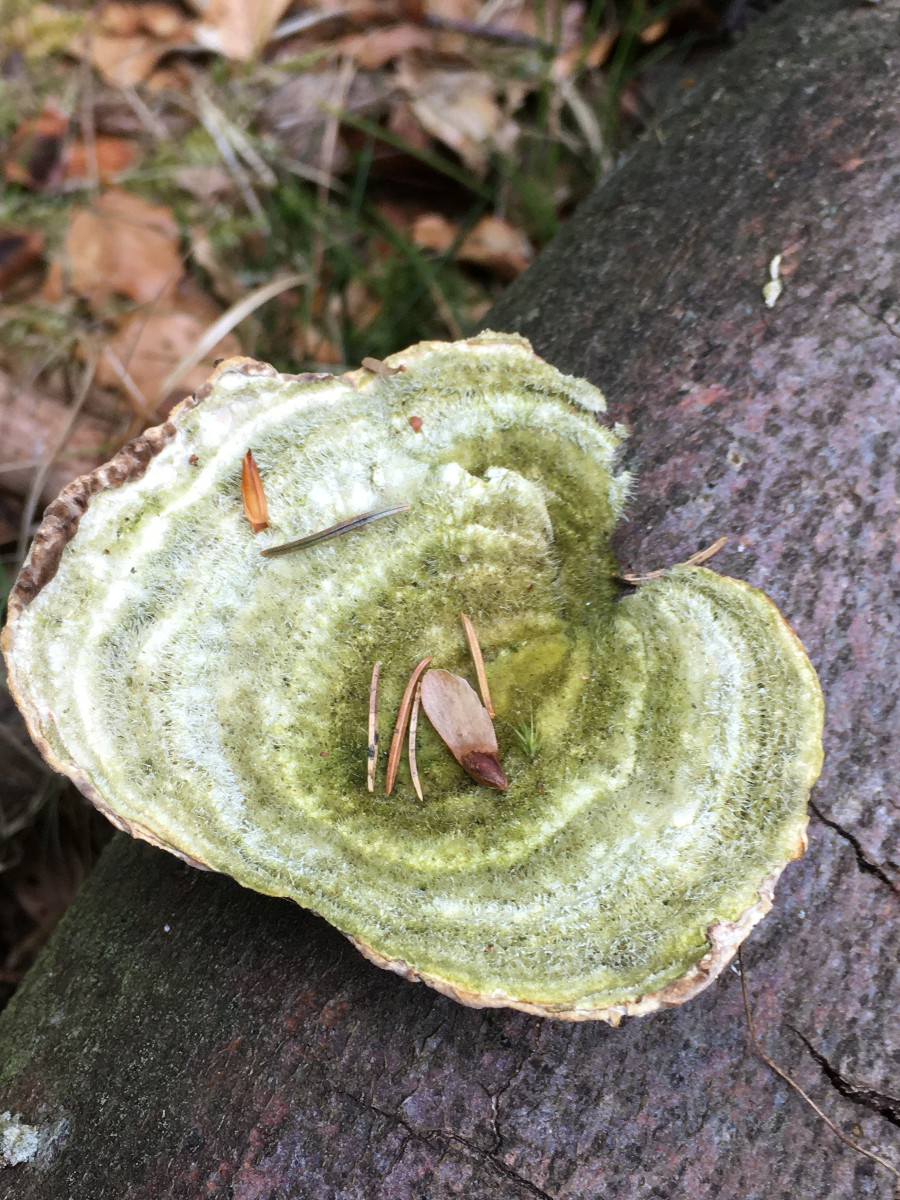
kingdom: Fungi
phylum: Basidiomycota
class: Agaricomycetes
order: Polyporales
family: Polyporaceae
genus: Trametes
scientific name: Trametes hirsuta
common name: håret læderporesvamp
